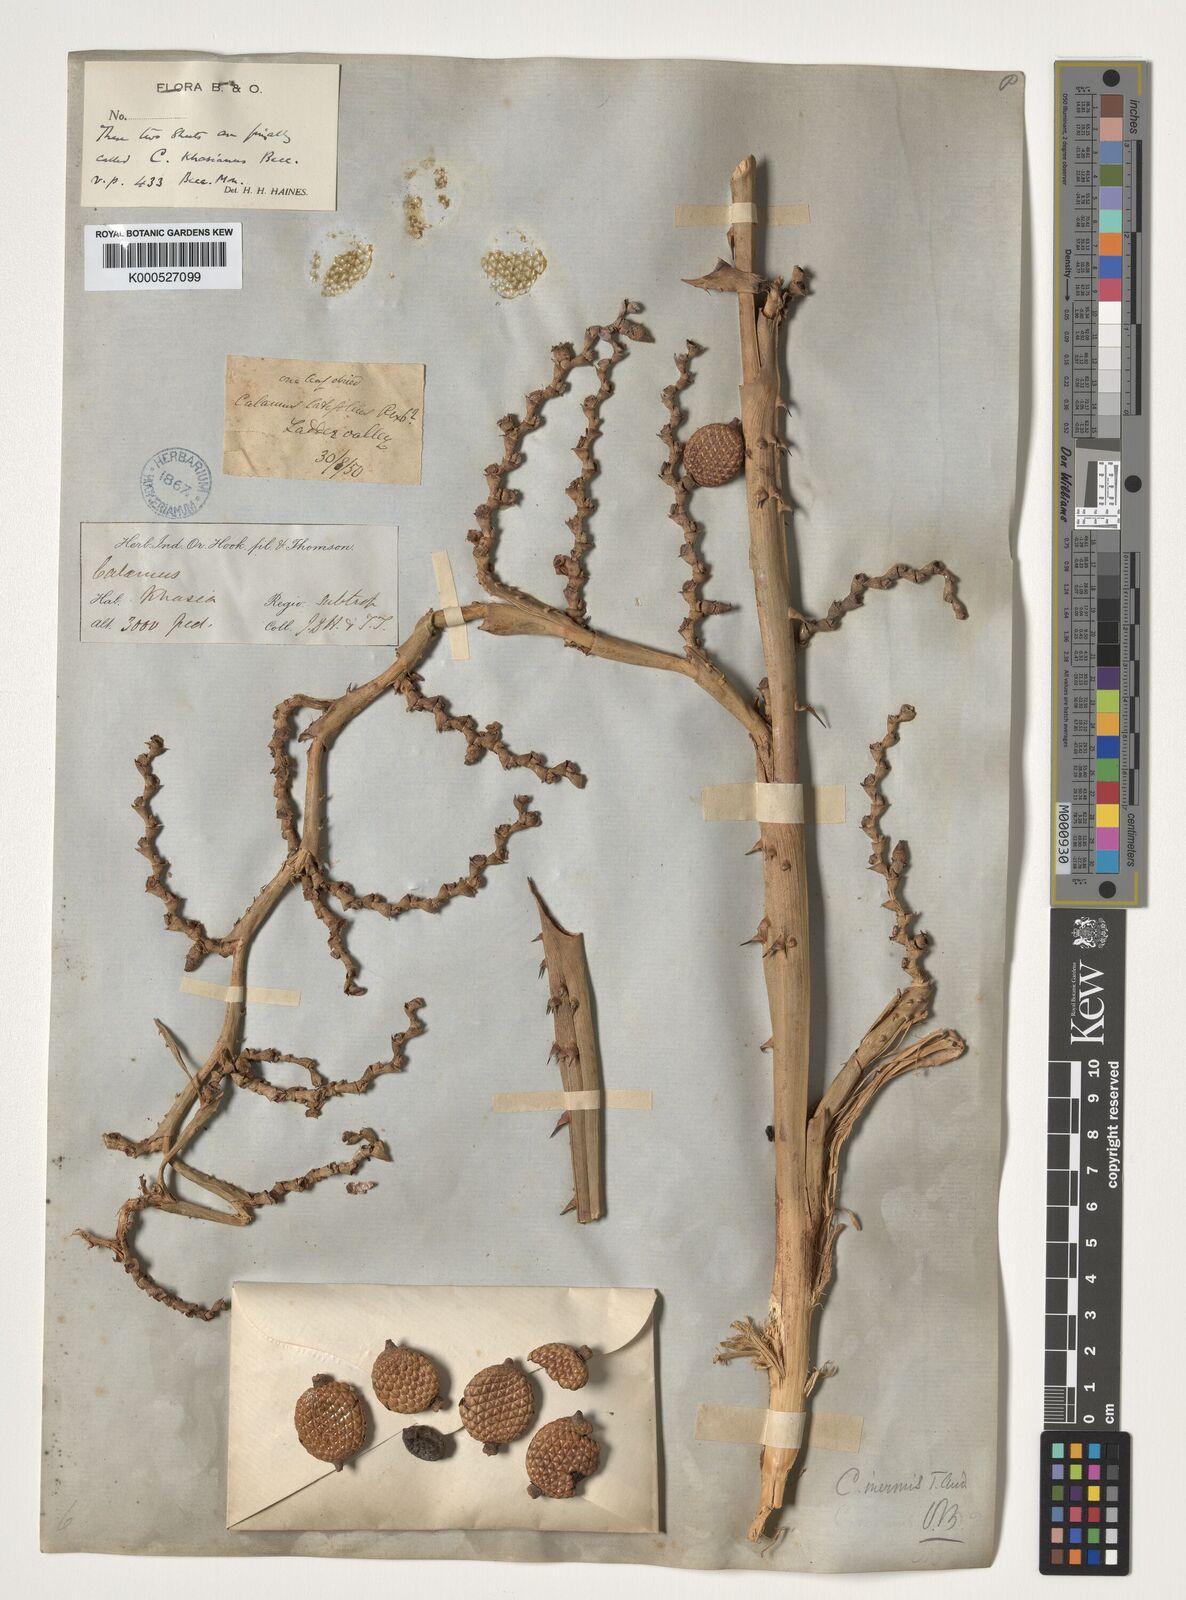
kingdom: Plantae
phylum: Tracheophyta
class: Liliopsida
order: Arecales
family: Arecaceae
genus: Calamus
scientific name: Calamus latifolius
